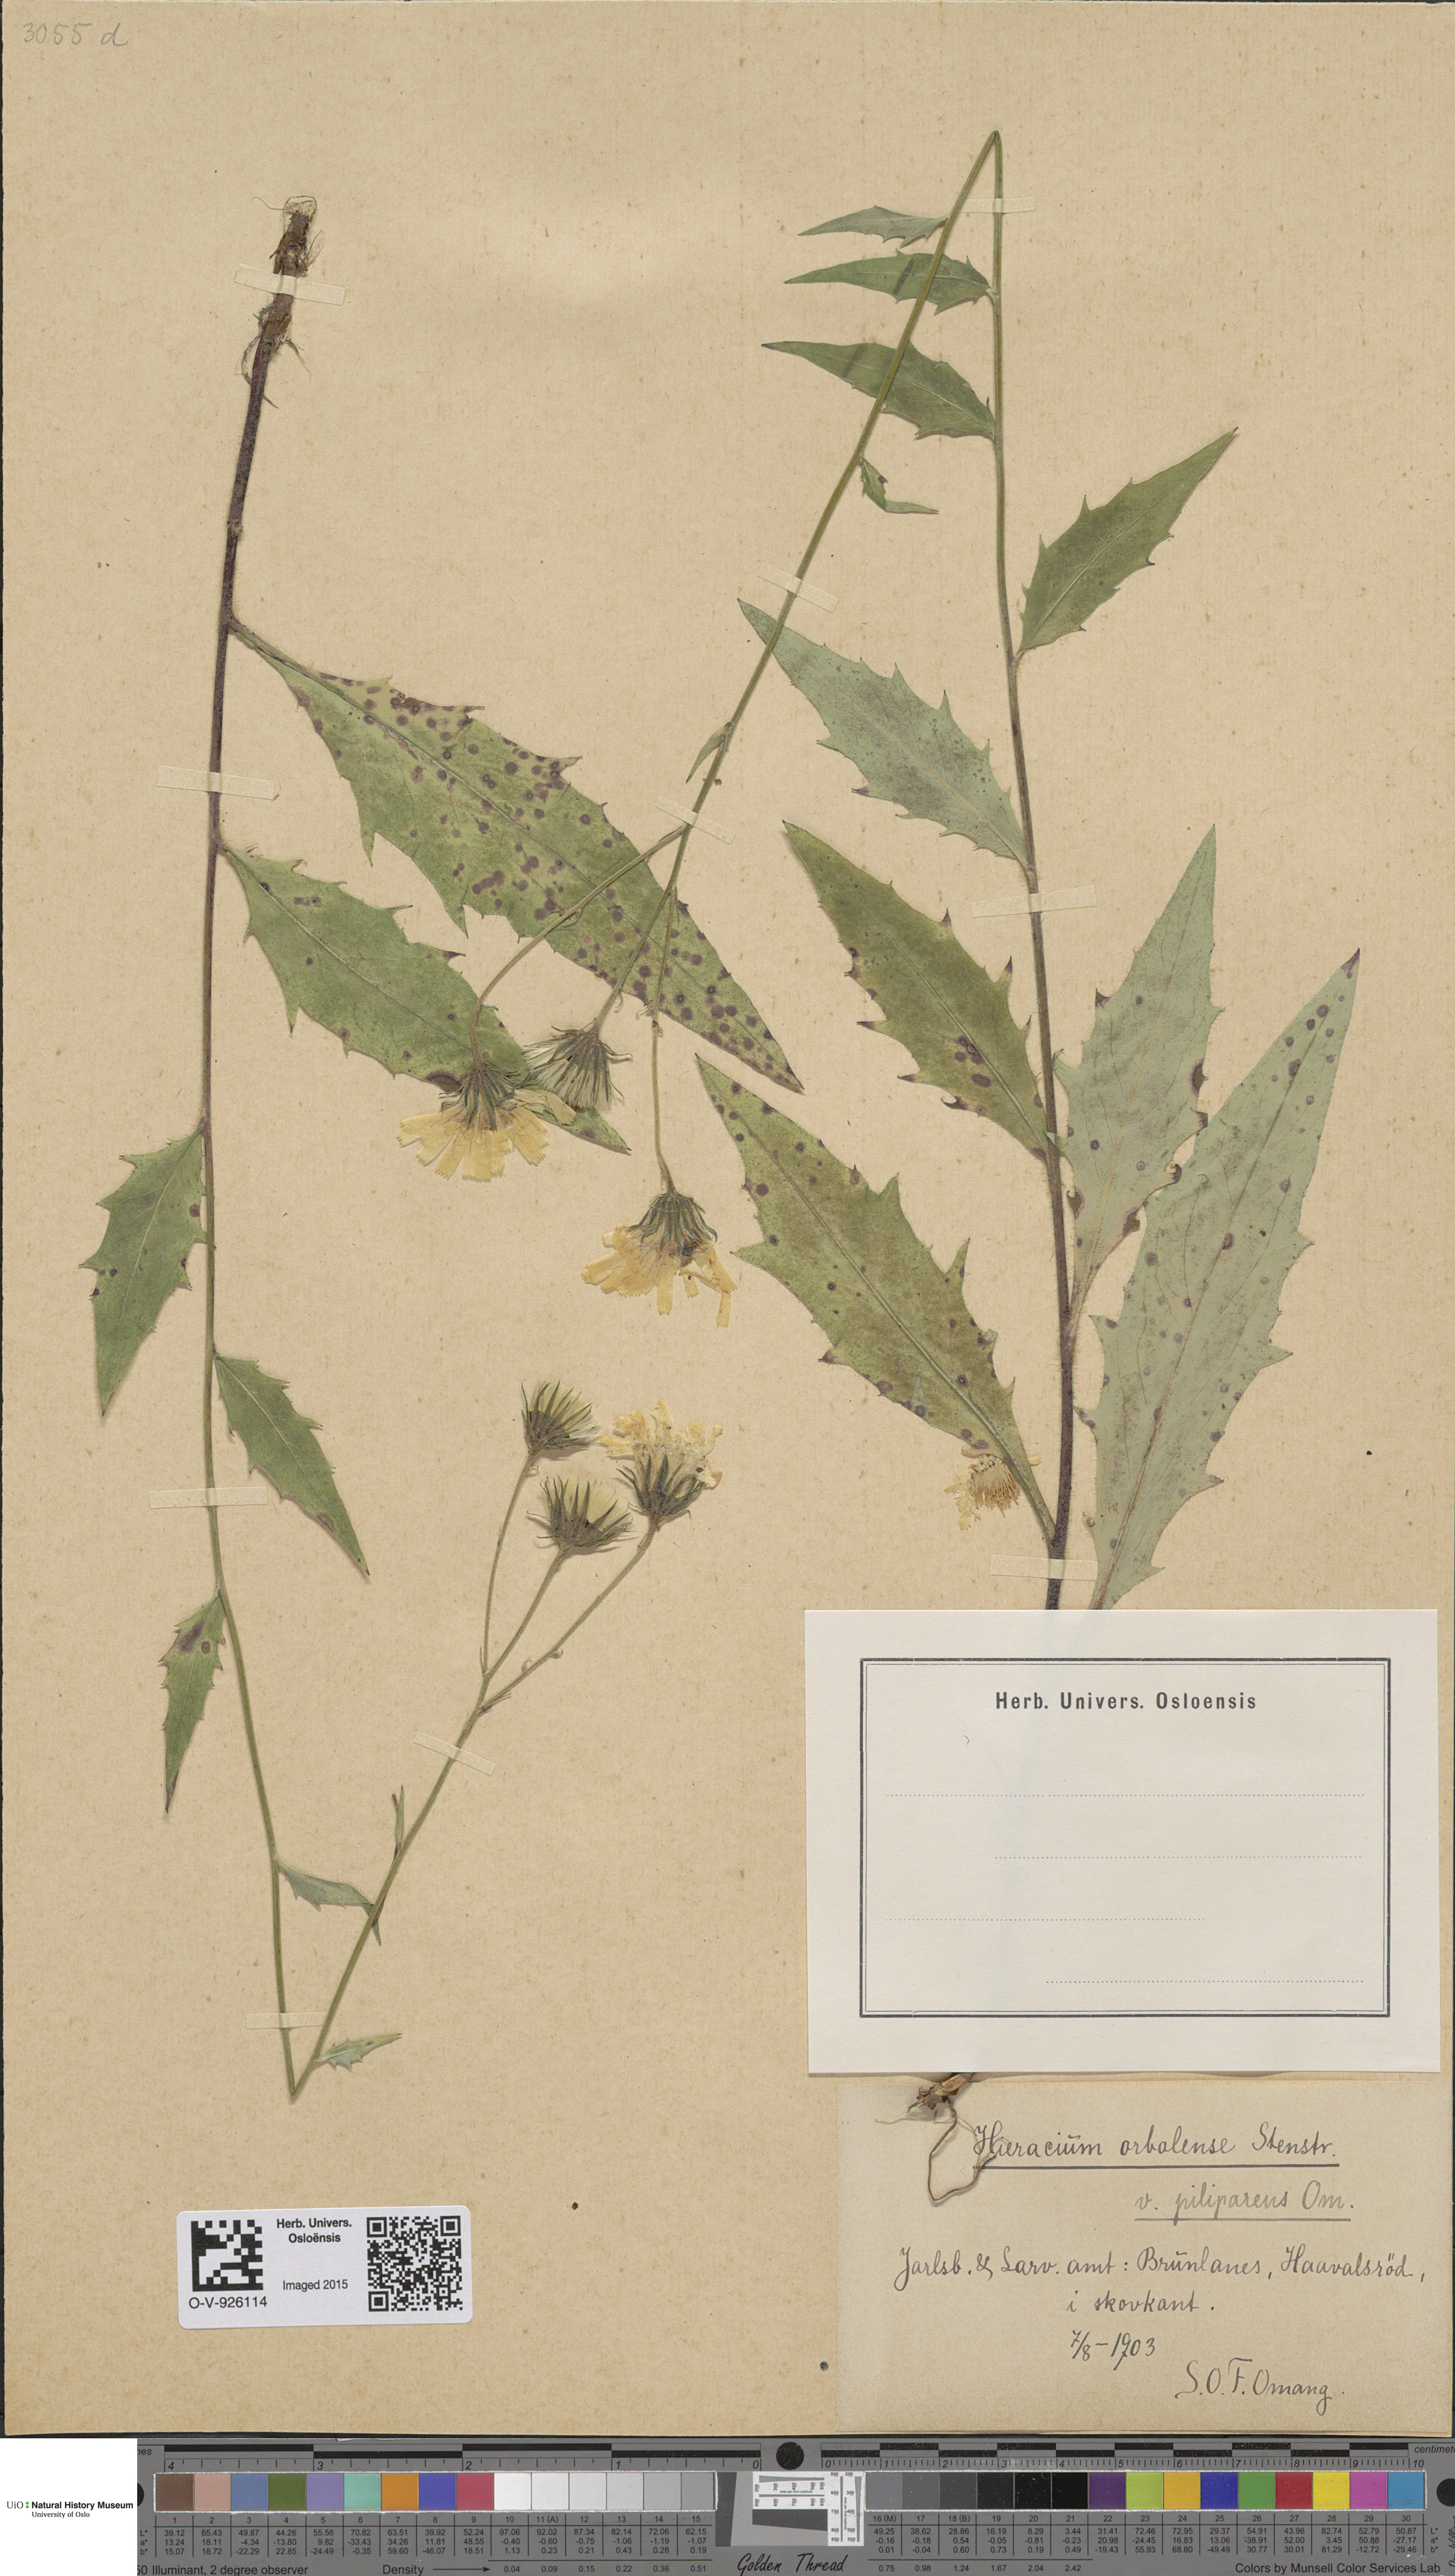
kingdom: Plantae
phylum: Tracheophyta
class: Magnoliopsida
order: Asterales
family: Asteraceae
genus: Hieracium
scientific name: Hieracium orbolense
